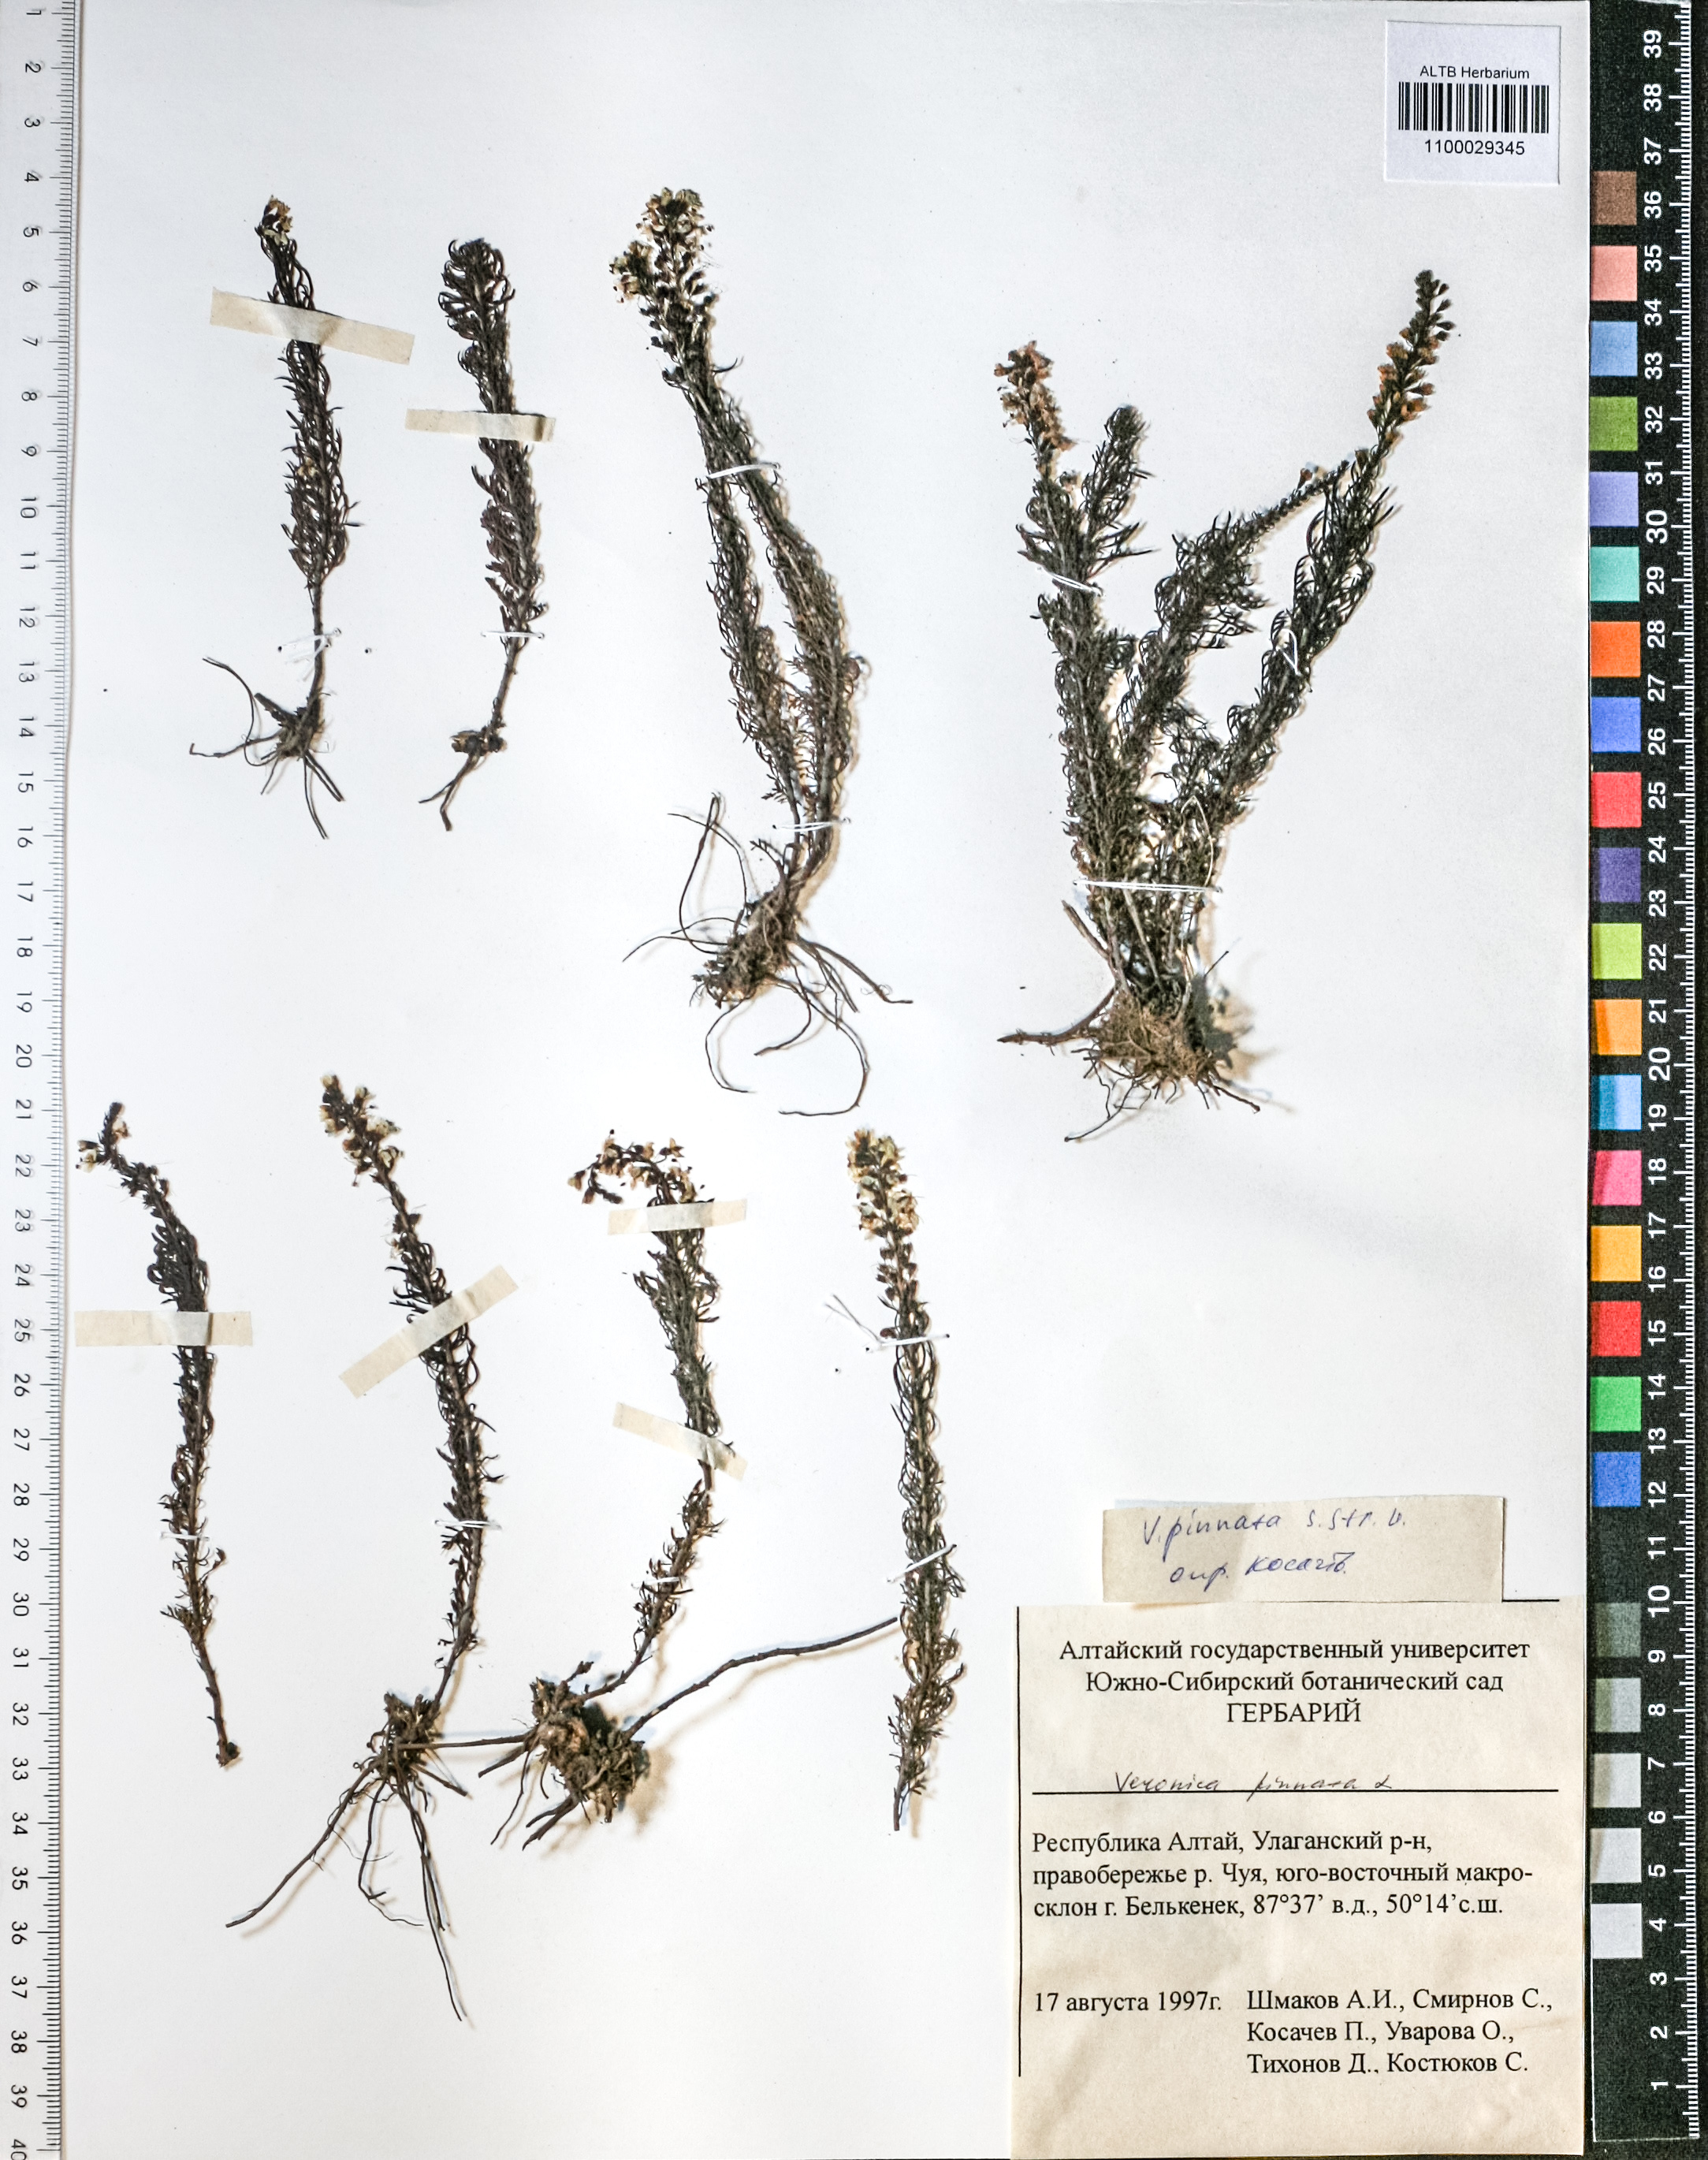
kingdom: Plantae
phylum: Tracheophyta
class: Magnoliopsida
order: Lamiales
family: Plantaginaceae
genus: Veronica
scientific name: Veronica pinnata
